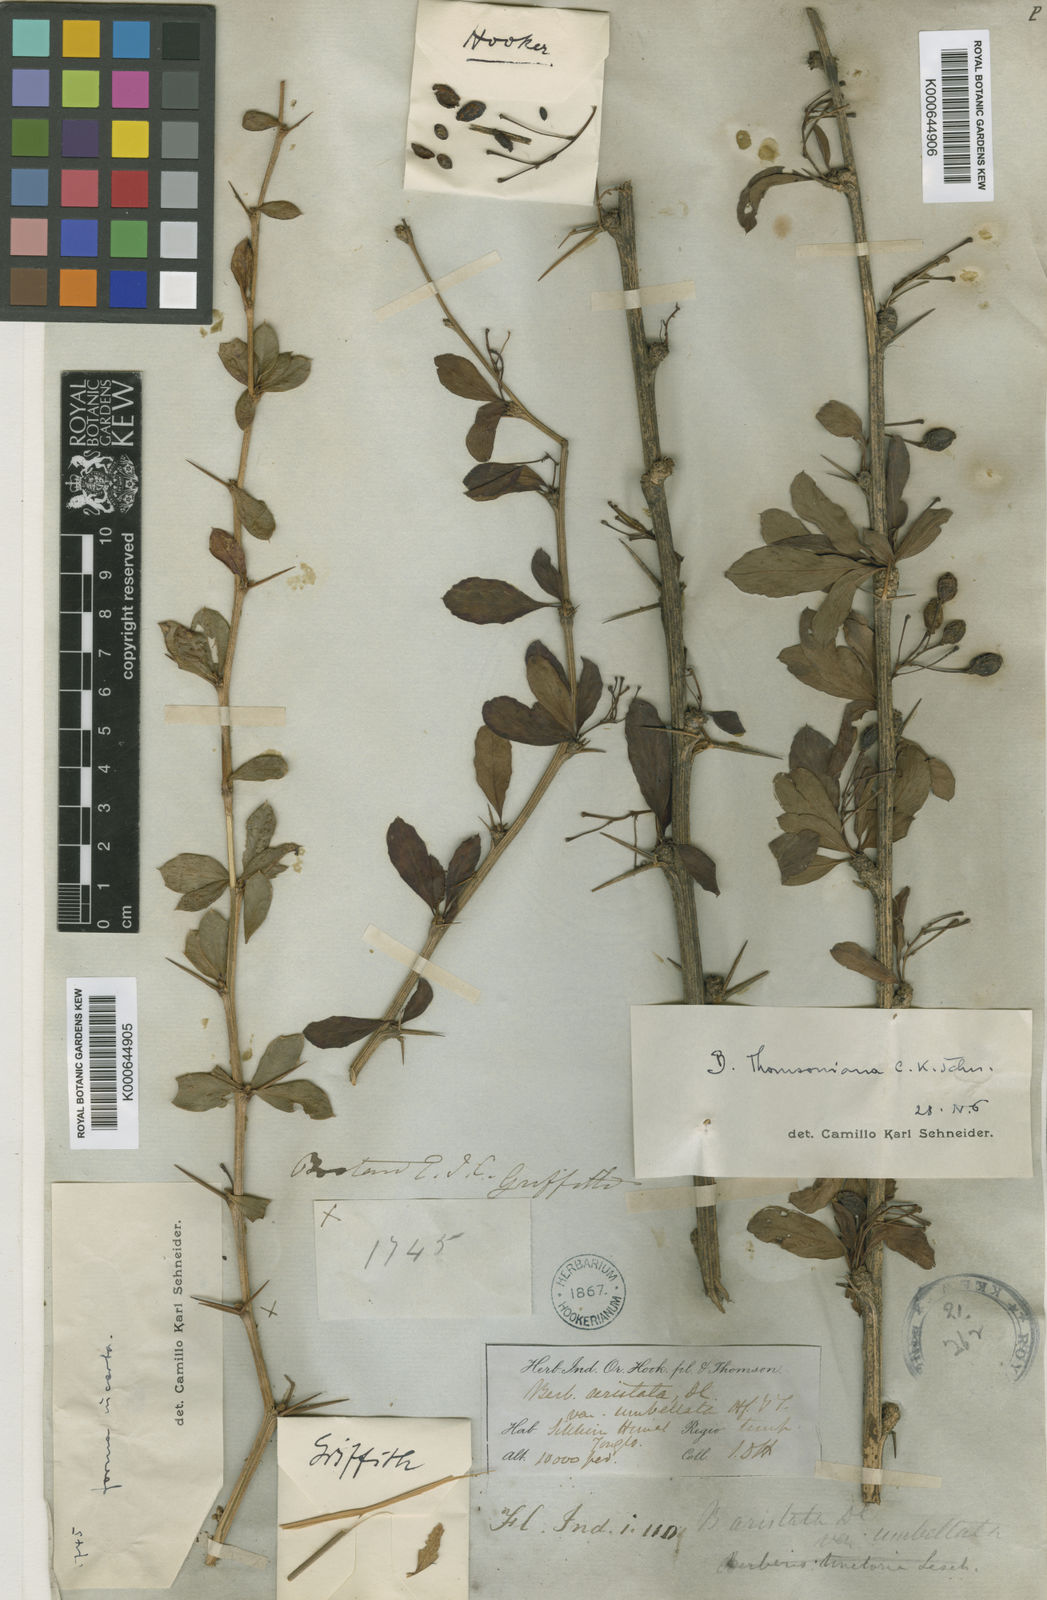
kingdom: Plantae
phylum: Tracheophyta
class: Magnoliopsida
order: Ranunculales
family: Berberidaceae
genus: Berberis
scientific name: Berberis thomsoniana
